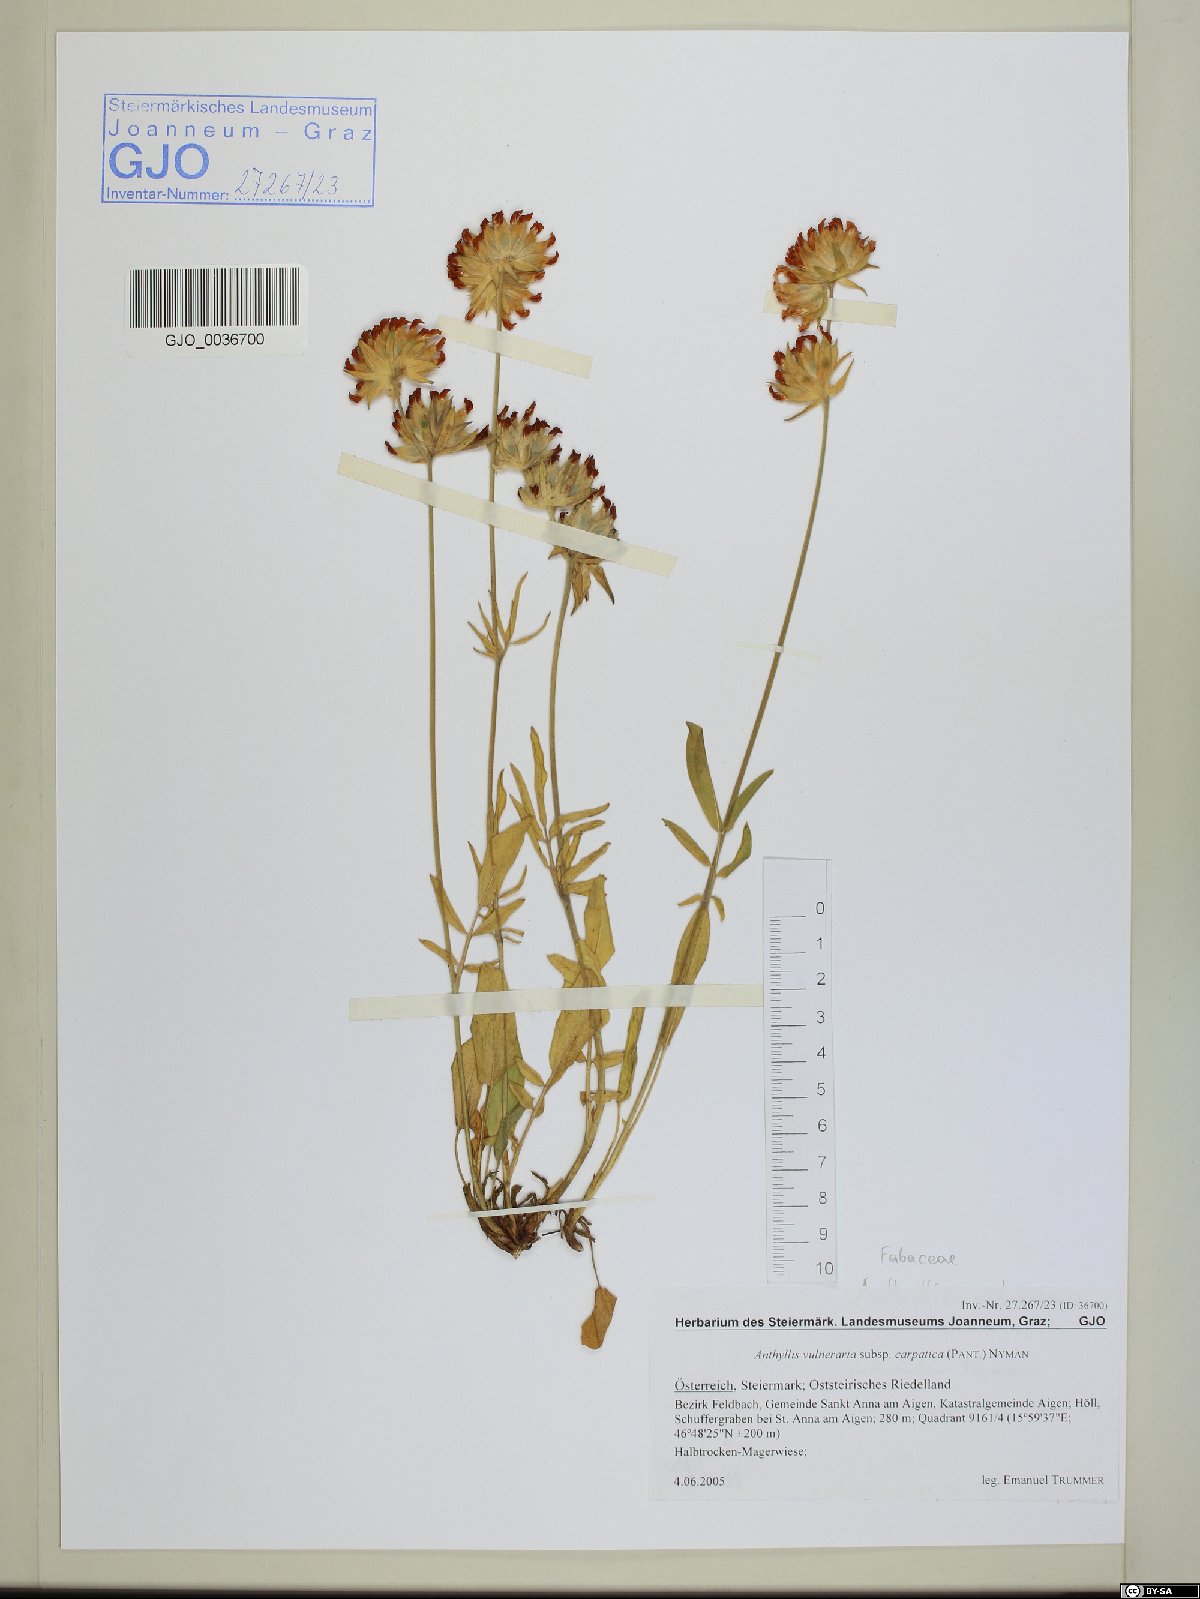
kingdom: Plantae
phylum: Tracheophyta
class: Magnoliopsida
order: Fabales
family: Fabaceae
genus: Anthyllis
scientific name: Anthyllis vulneraria
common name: Kidney vetch
